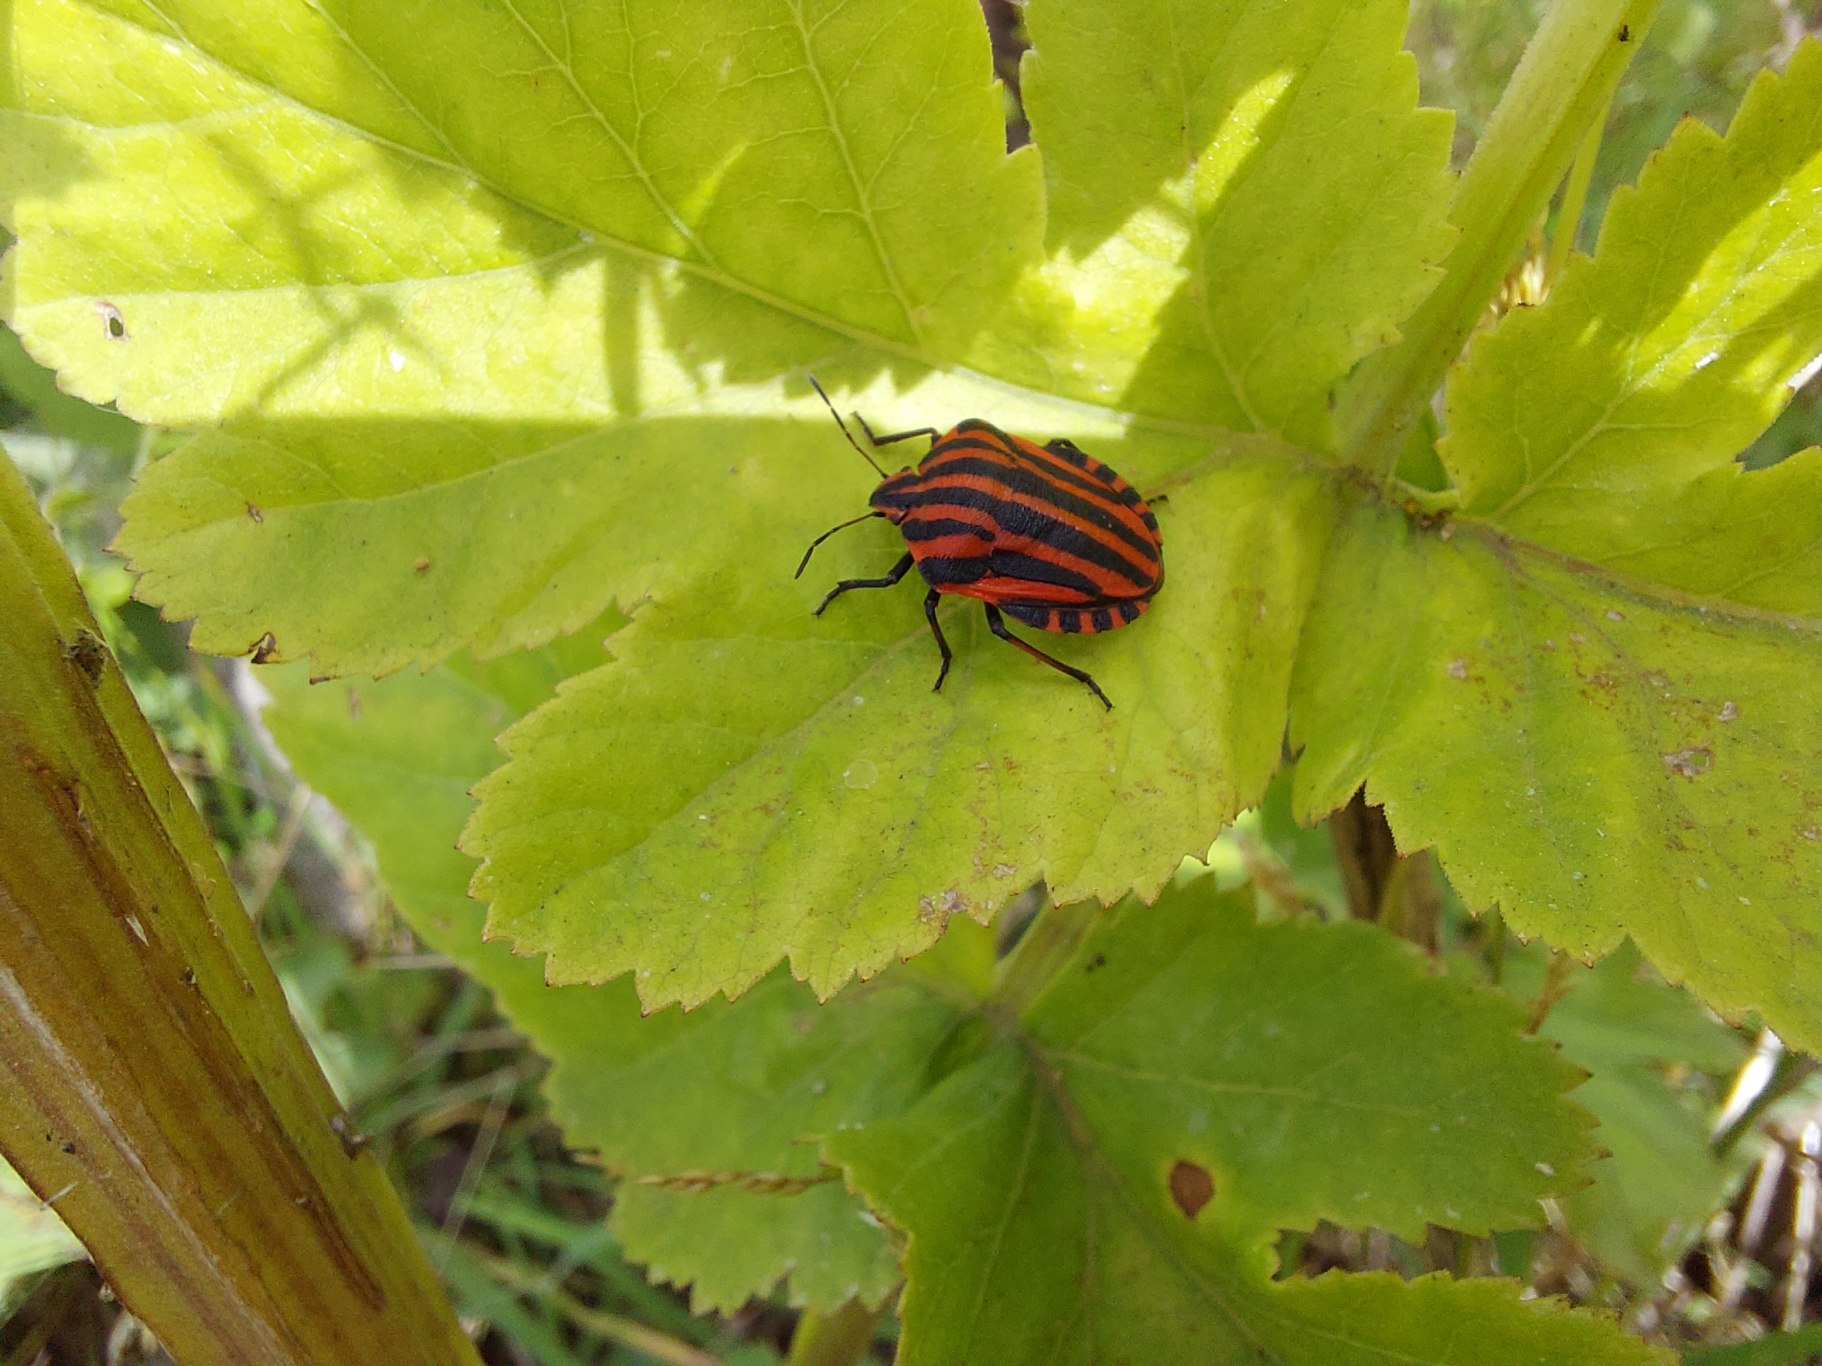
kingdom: Animalia
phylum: Arthropoda
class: Insecta
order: Hemiptera
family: Pentatomidae
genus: Graphosoma
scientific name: Graphosoma italicum
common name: Stribetæge
